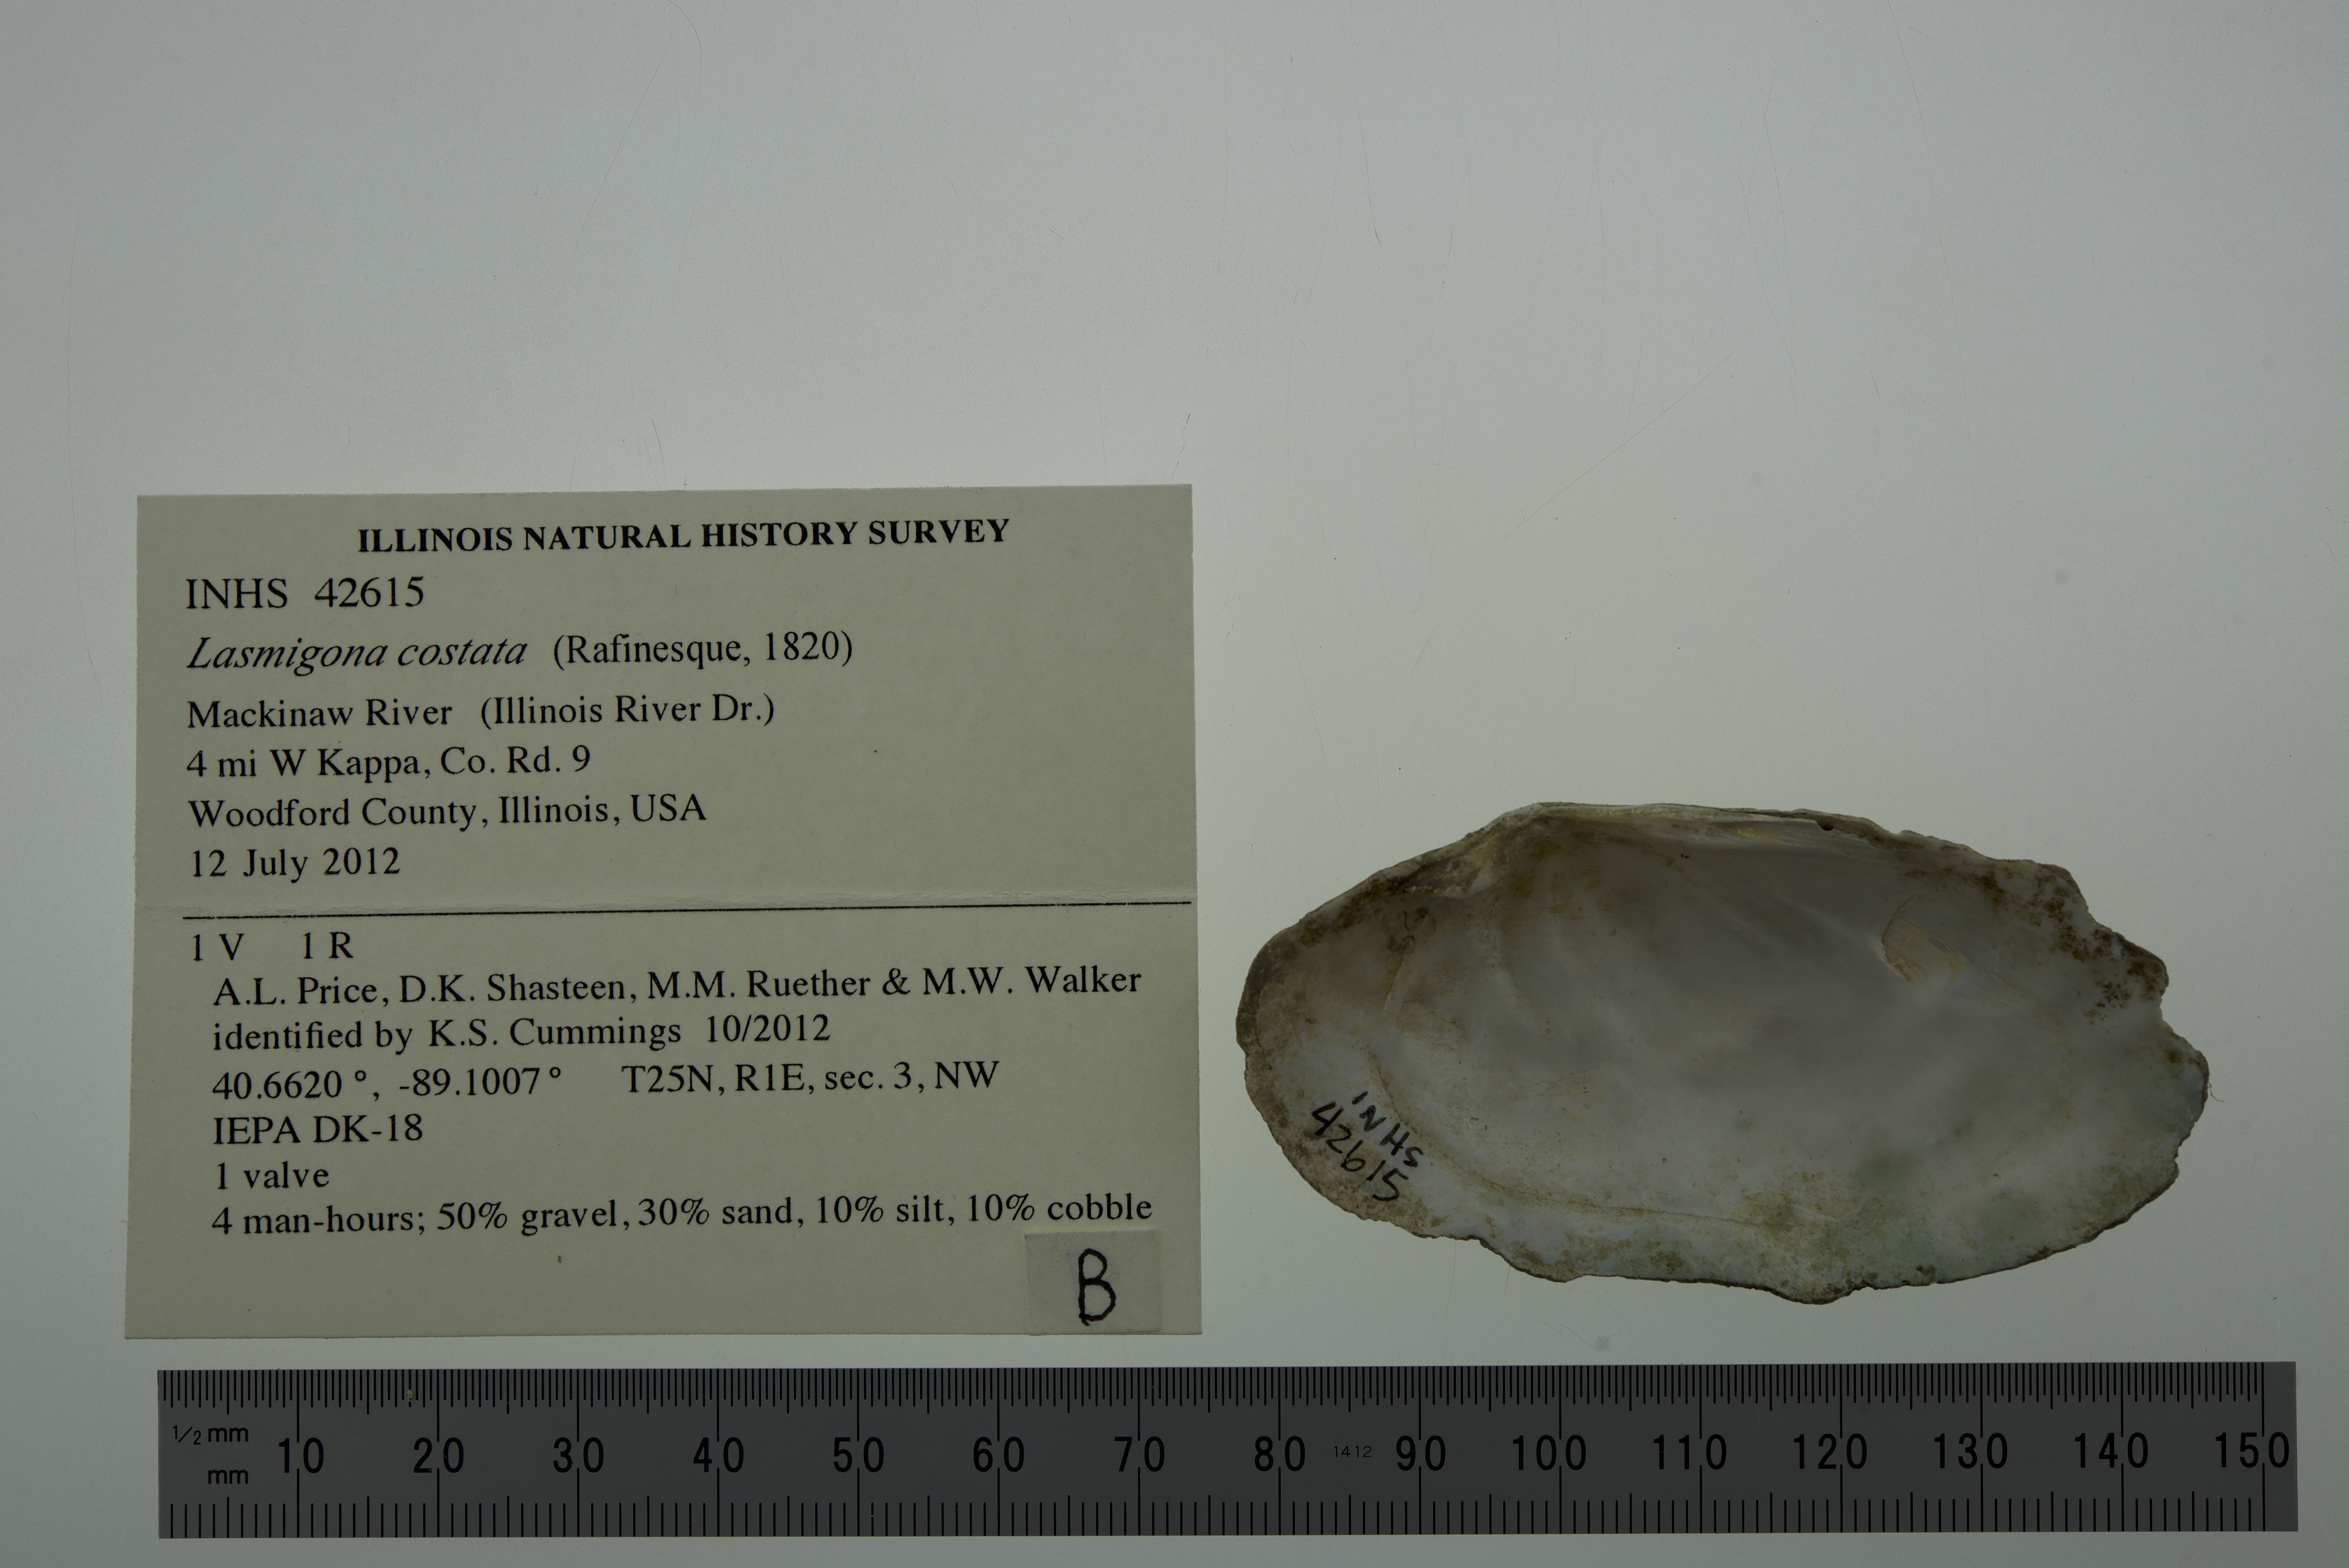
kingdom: Animalia
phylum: Mollusca
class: Bivalvia
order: Unionida
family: Unionidae
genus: Lasmigona
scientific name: Lasmigona costata
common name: Flutedshell
